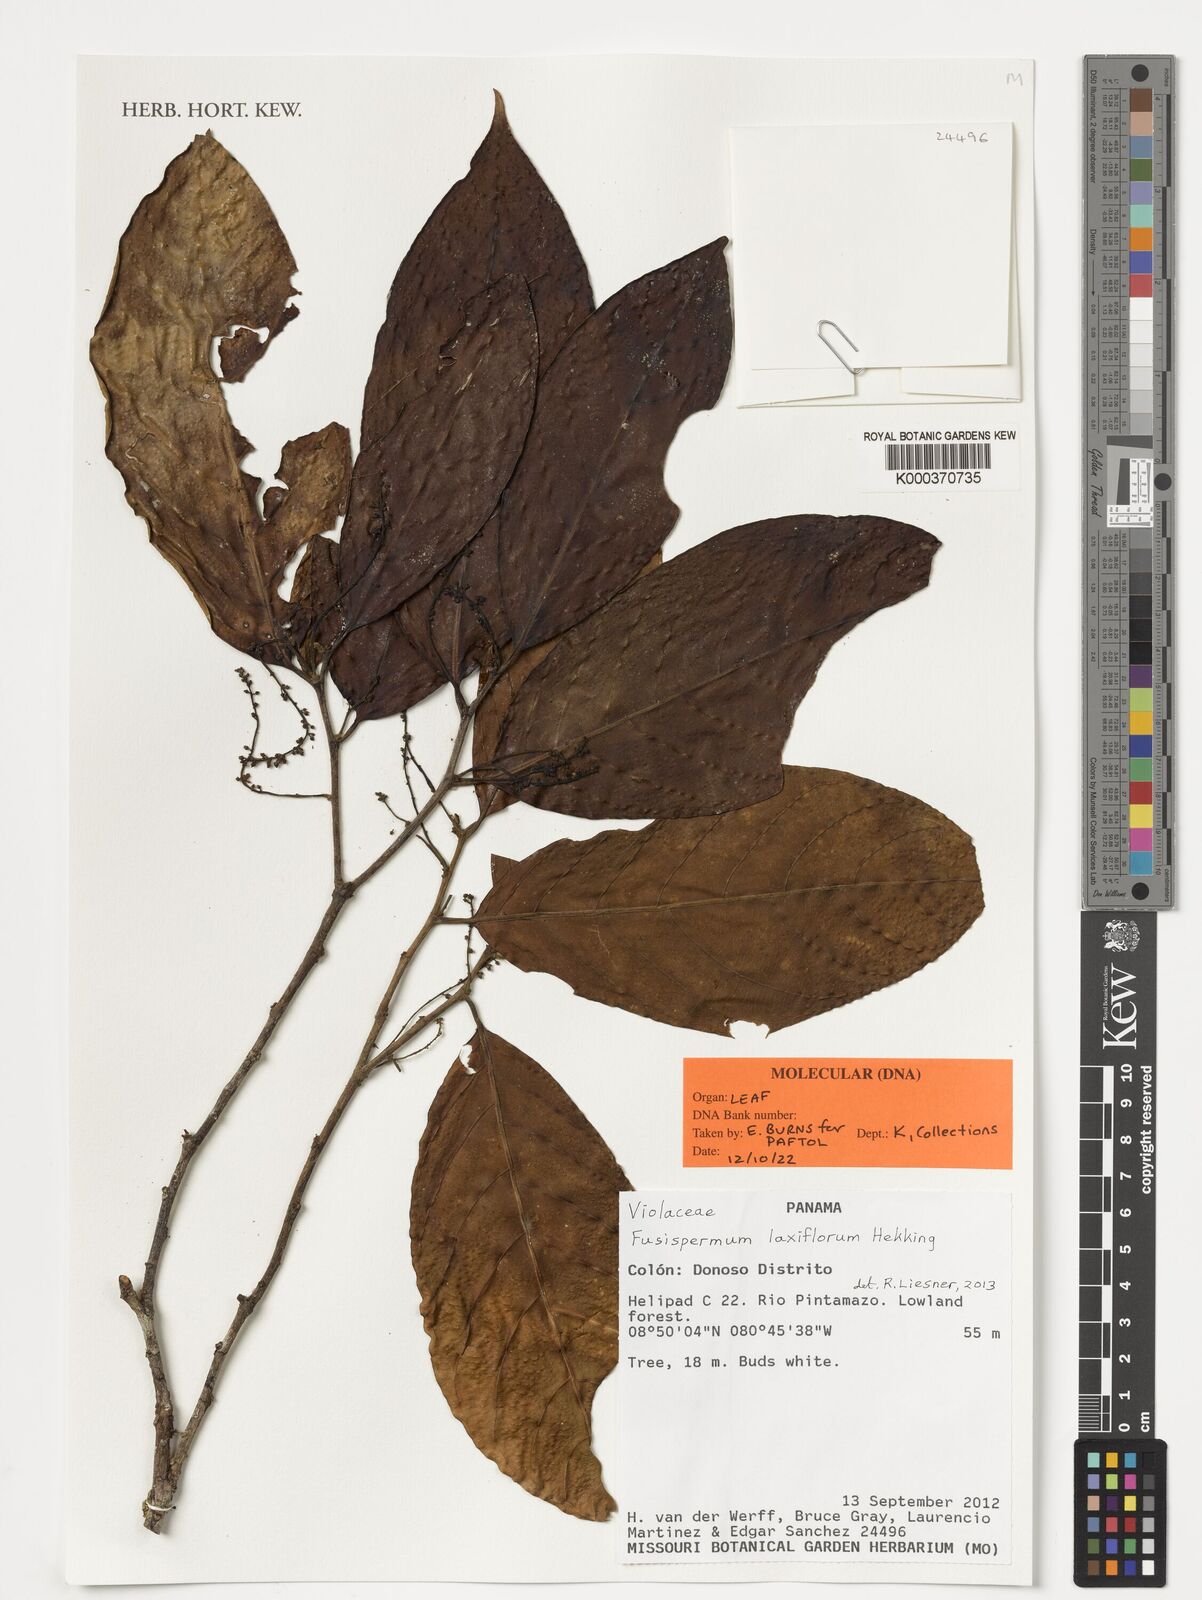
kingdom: Plantae
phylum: Tracheophyta
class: Magnoliopsida
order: Malpighiales
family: Violaceae
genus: Fusispermum
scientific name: Fusispermum laxiflorum
